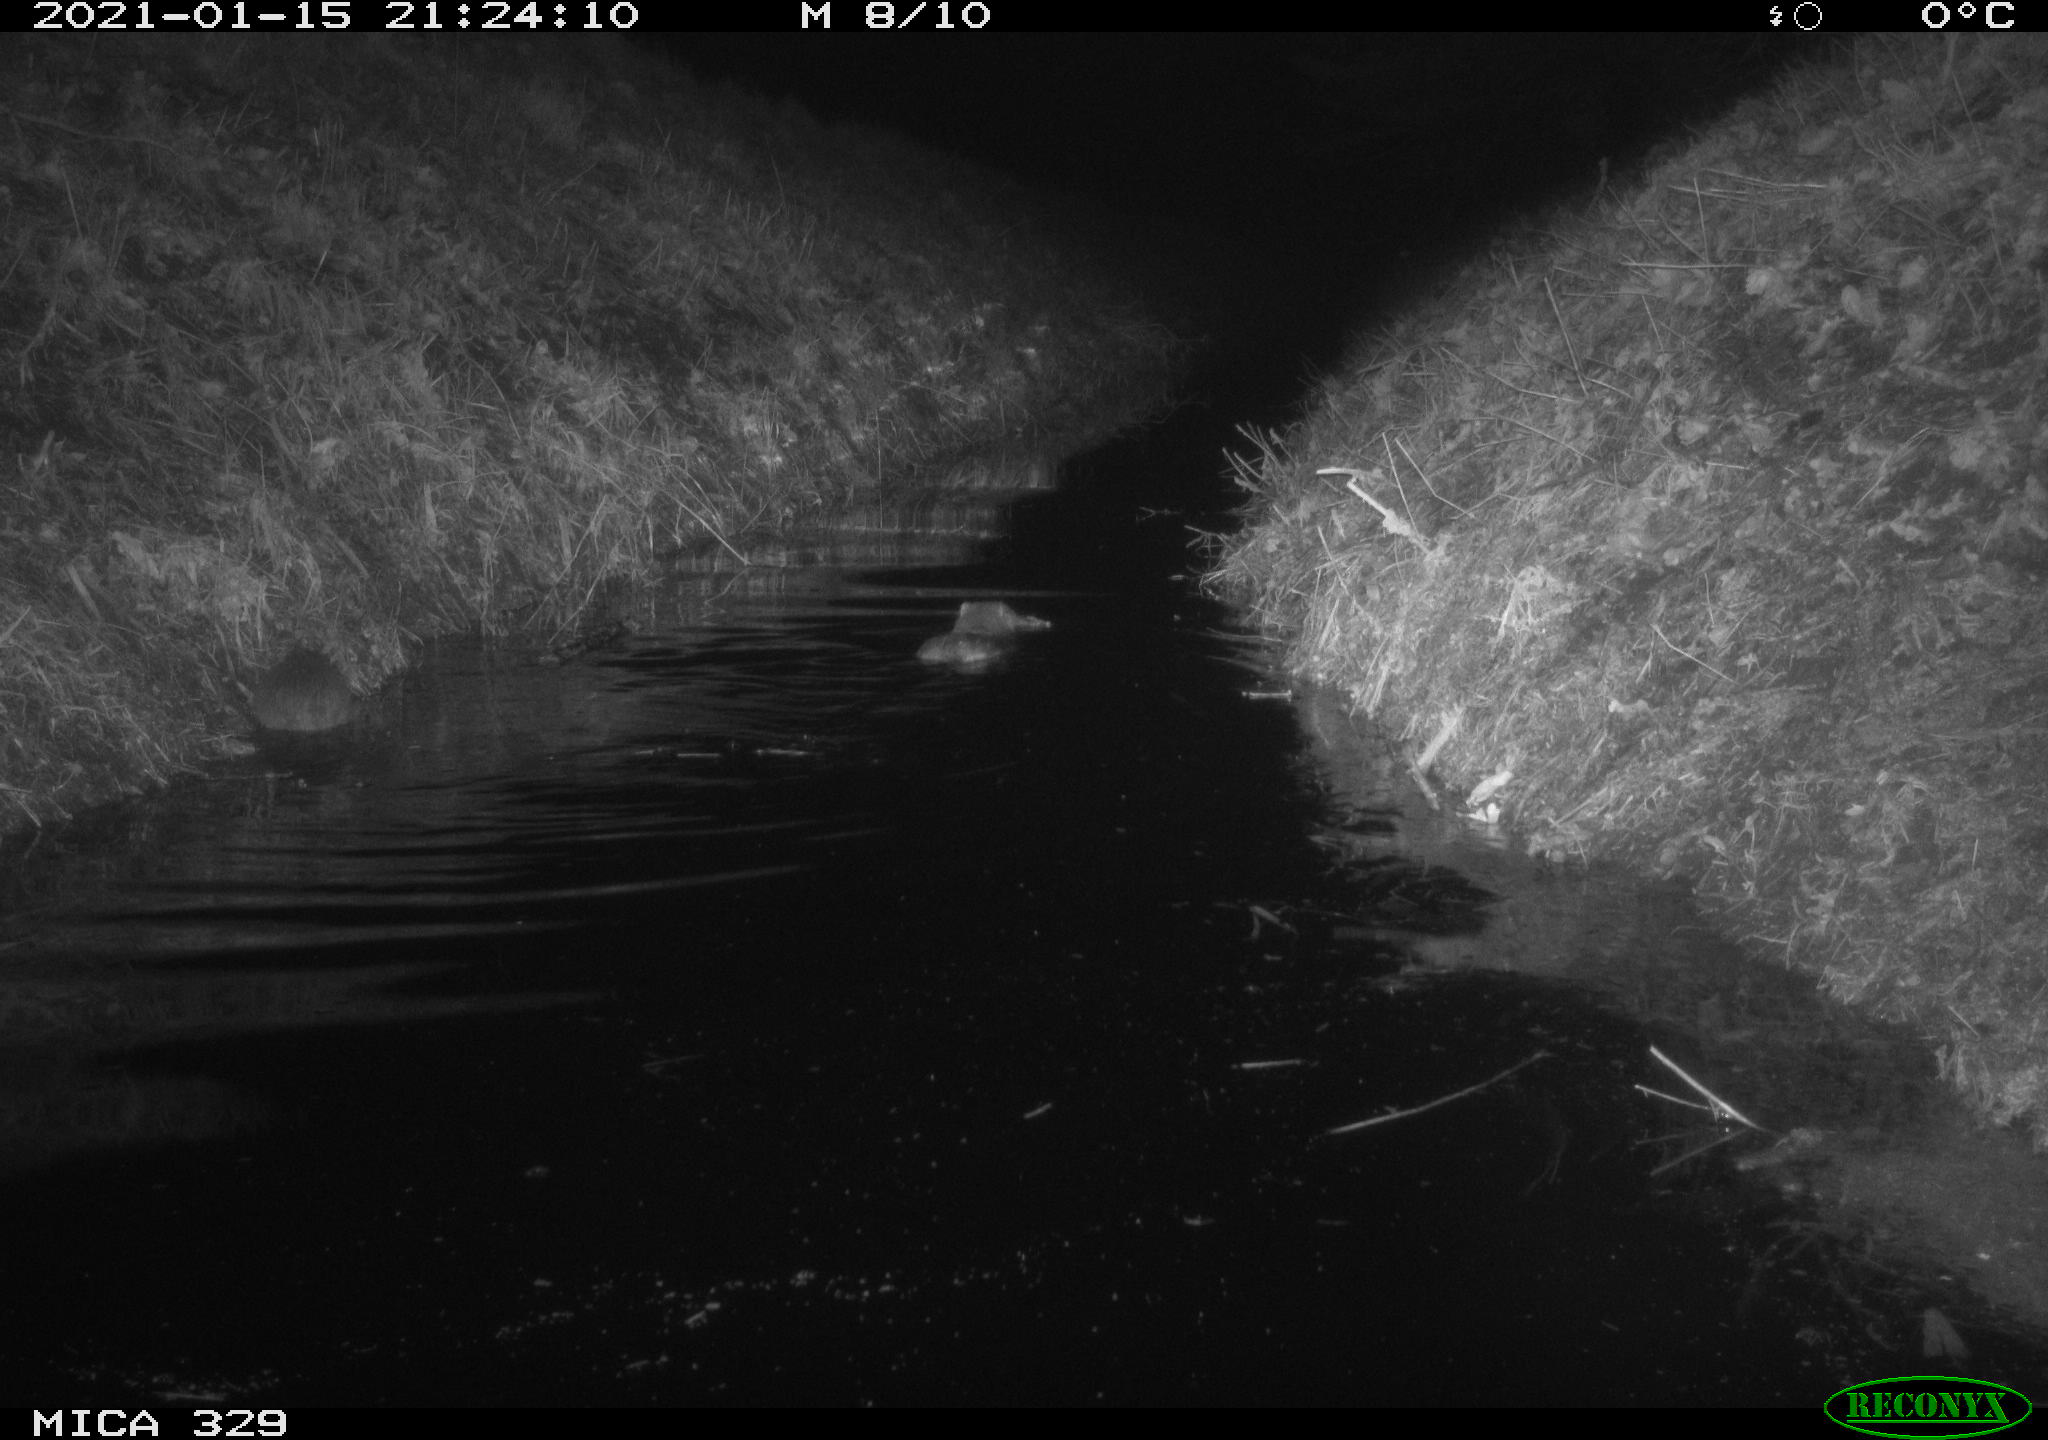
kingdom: Animalia
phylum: Chordata
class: Mammalia
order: Rodentia
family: Myocastoridae
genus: Myocastor
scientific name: Myocastor coypus
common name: Coypu
